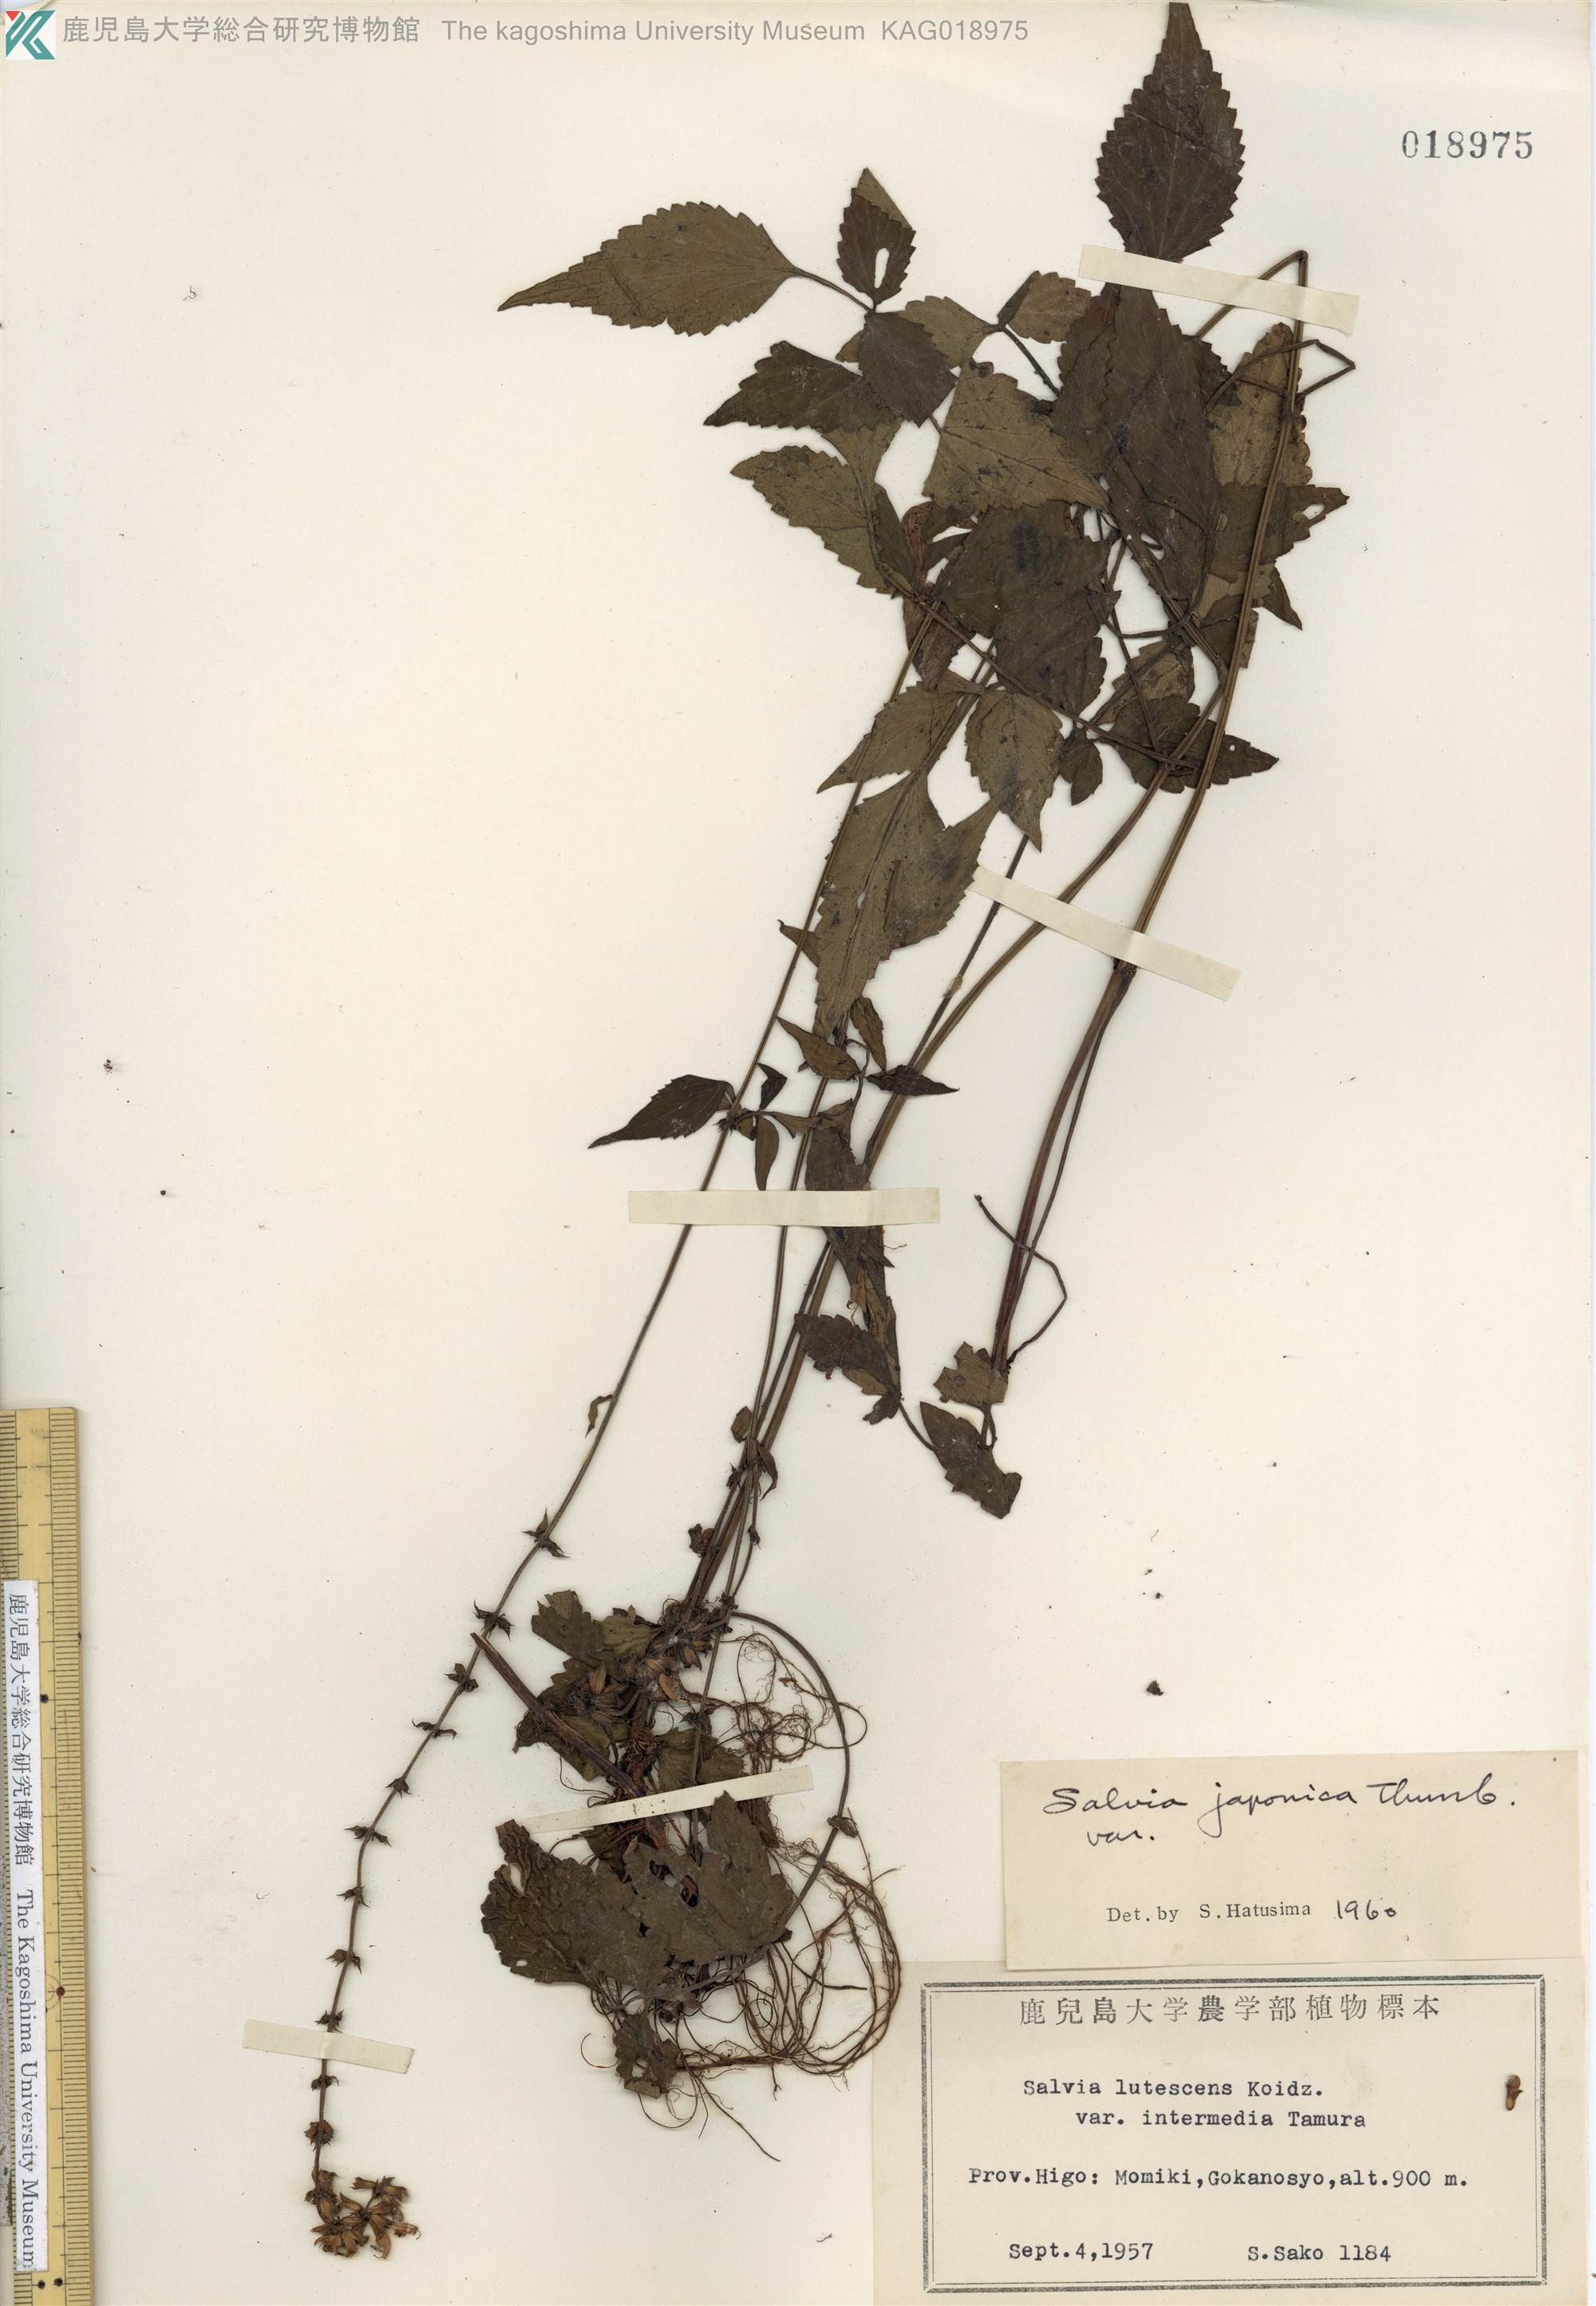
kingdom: Plantae
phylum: Tracheophyta
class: Magnoliopsida
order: Lamiales
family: Lamiaceae
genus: Salvia
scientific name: Salvia japonica
